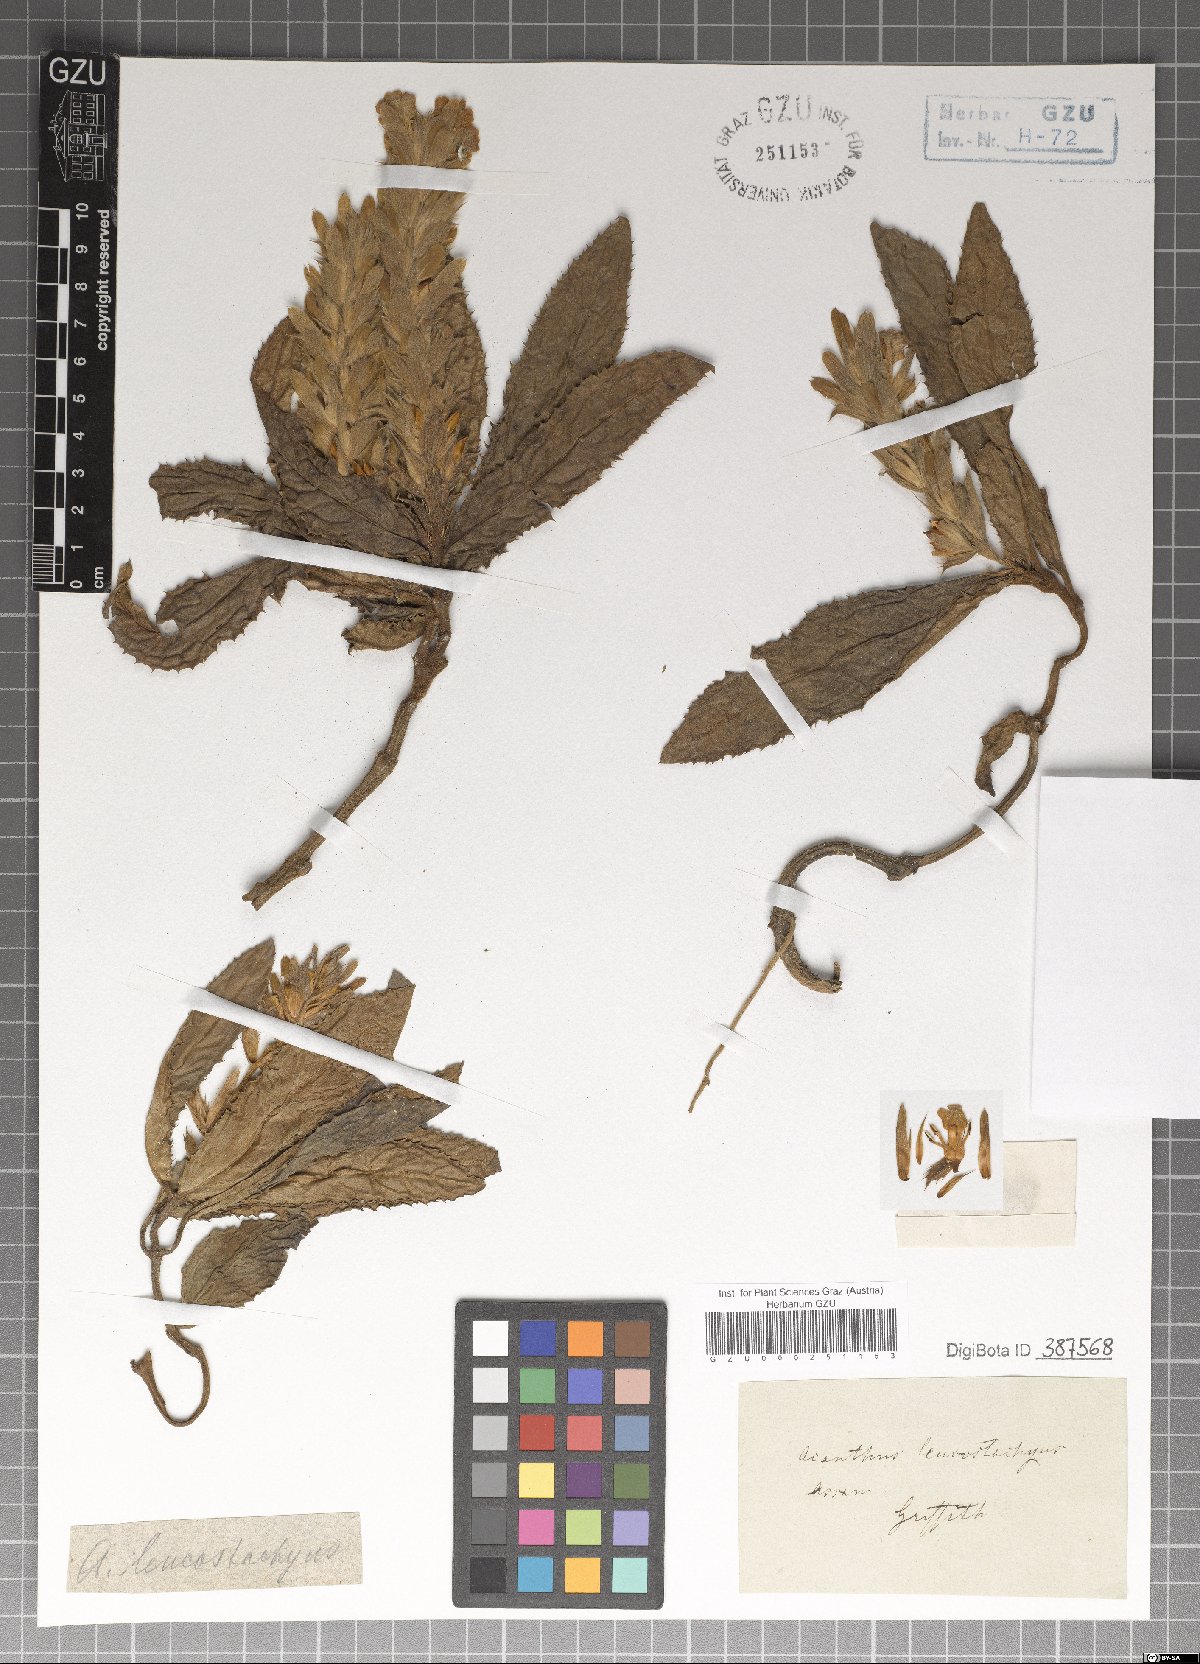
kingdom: Plantae
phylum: Tracheophyta
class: Magnoliopsida
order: Lamiales
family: Acanthaceae
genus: Acanthus
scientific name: Acanthus leucostachyus
